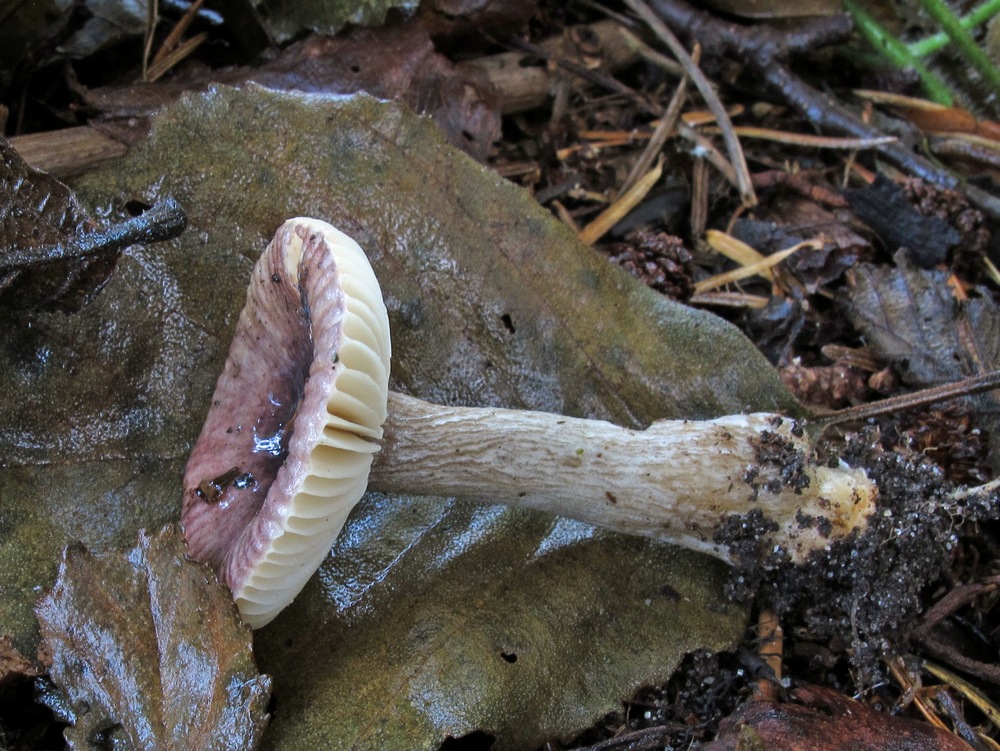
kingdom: Fungi
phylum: Basidiomycota
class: Agaricomycetes
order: Russulales
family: Russulaceae
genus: Russula
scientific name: Russula alnetorum
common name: elle-skørhat
